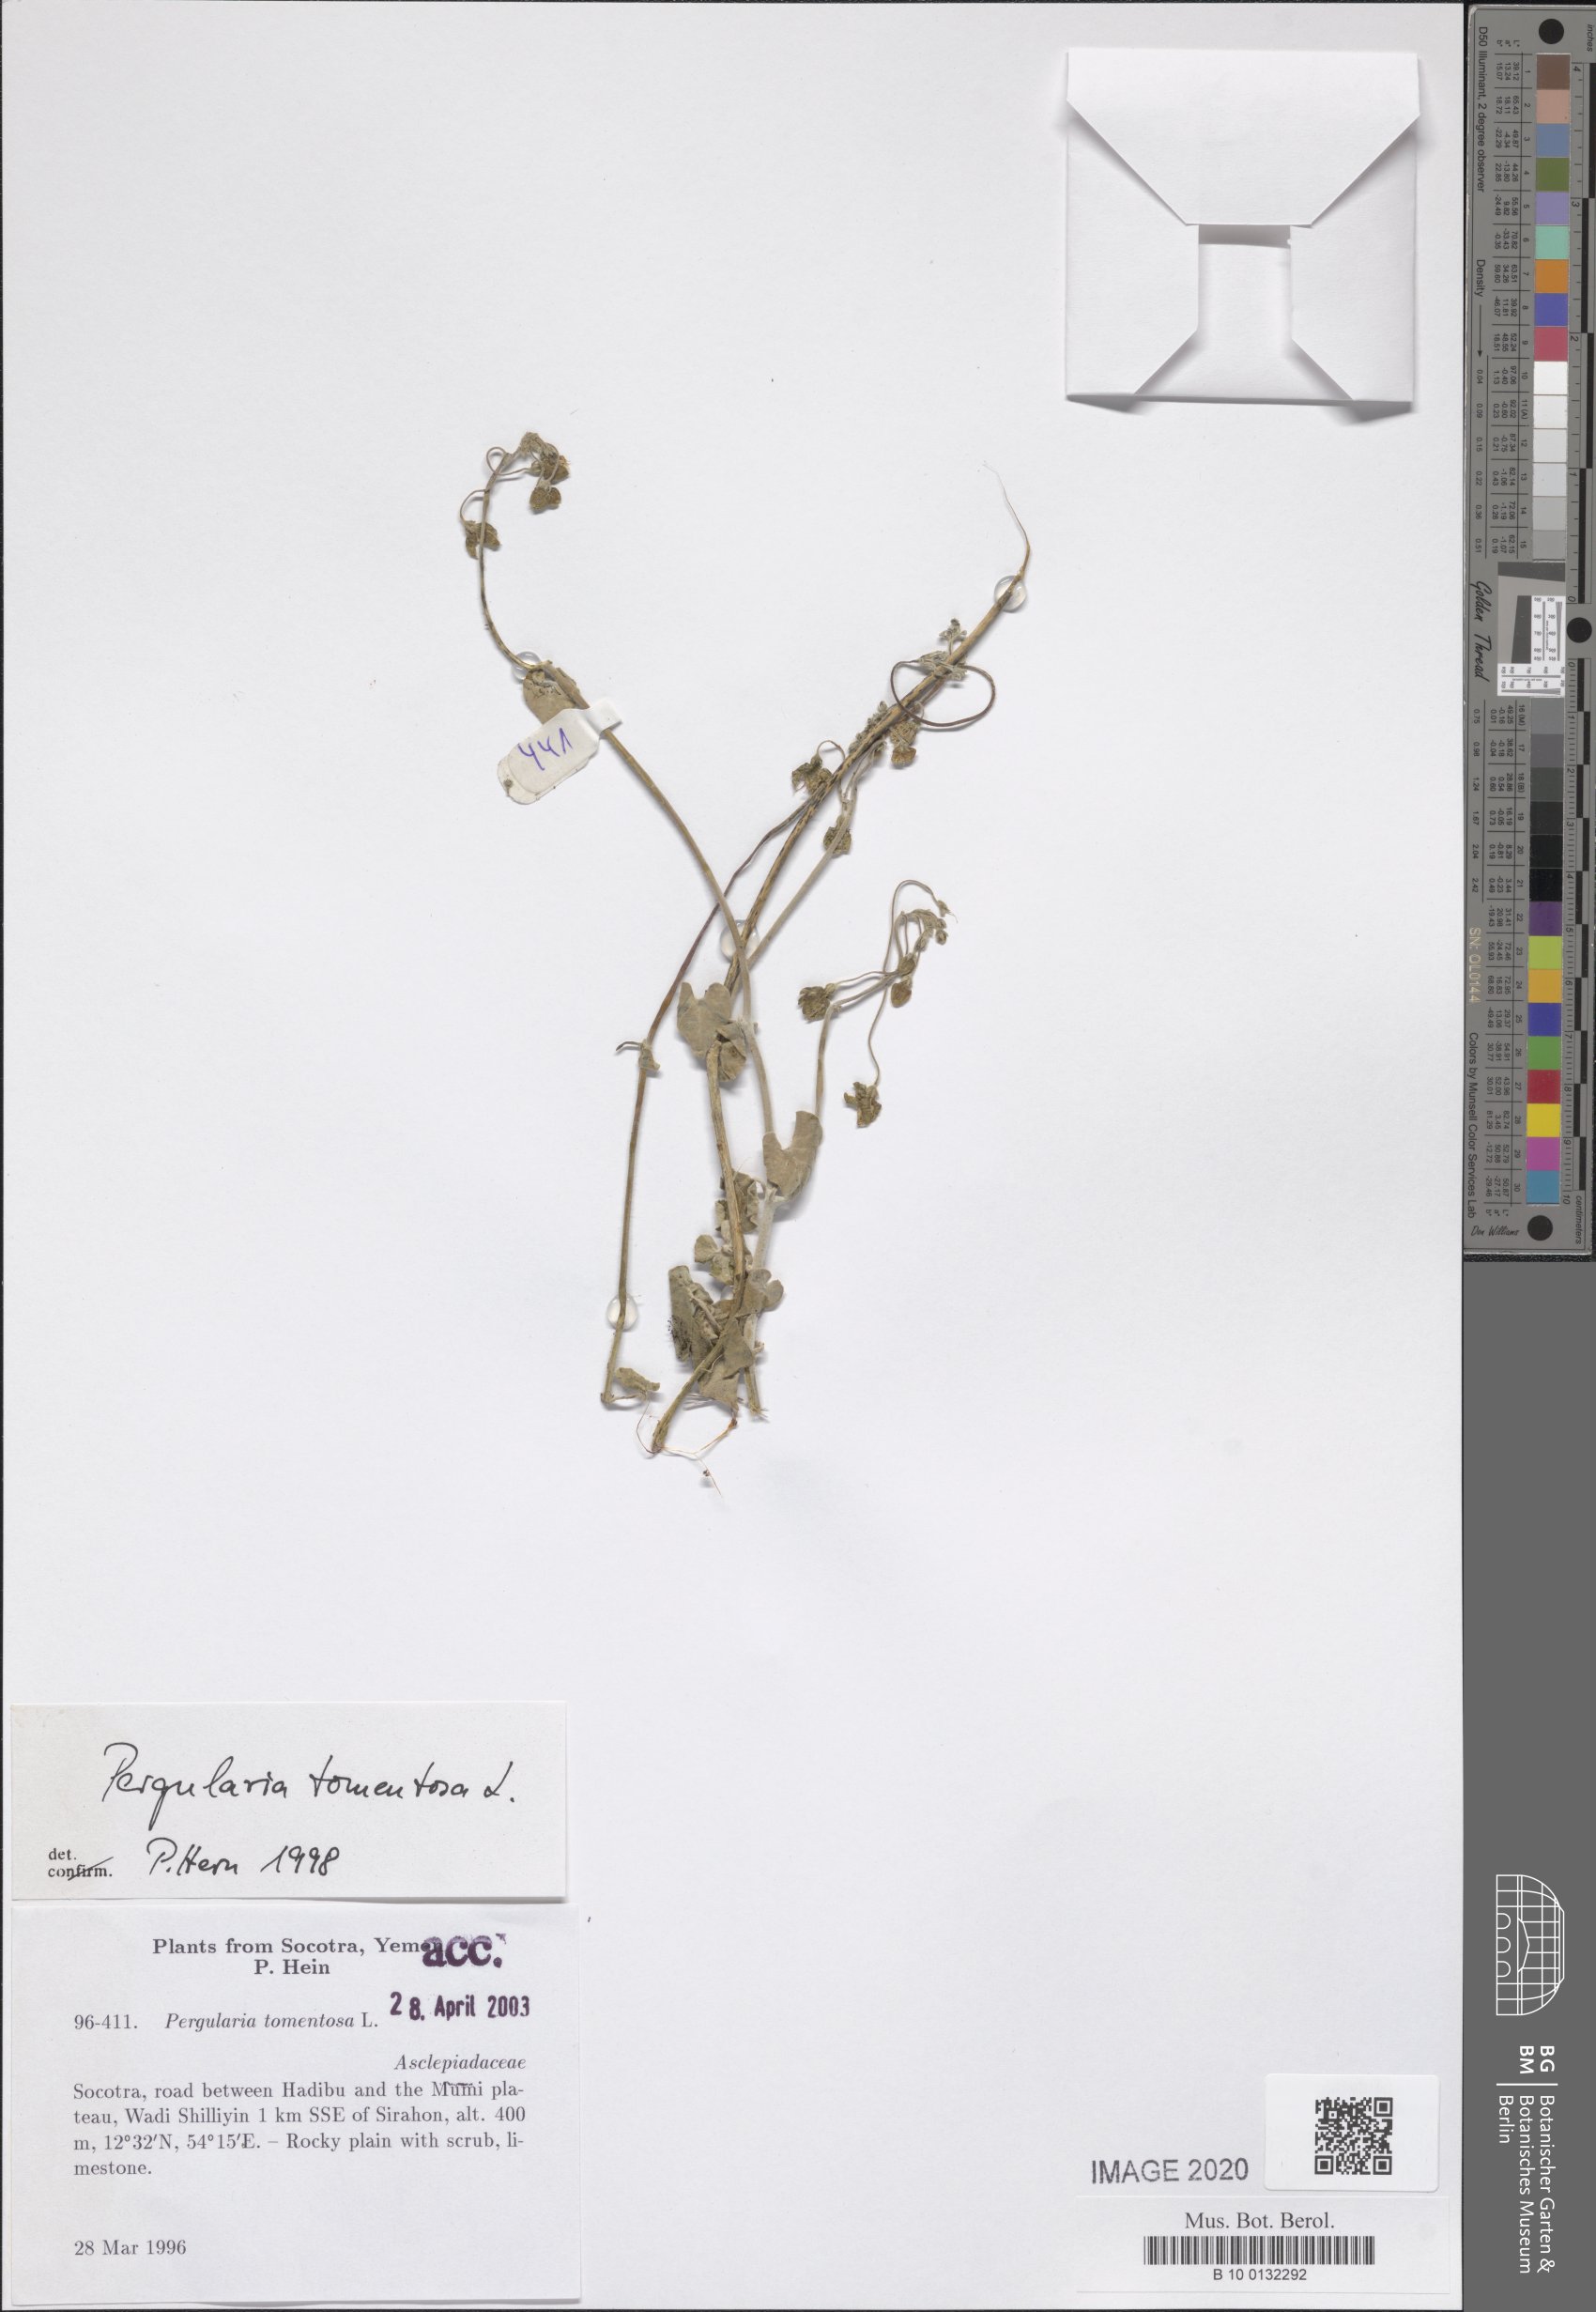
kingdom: Plantae
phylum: Tracheophyta
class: Magnoliopsida
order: Gentianales
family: Apocynaceae
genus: Pergularia
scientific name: Pergularia tomentosa
